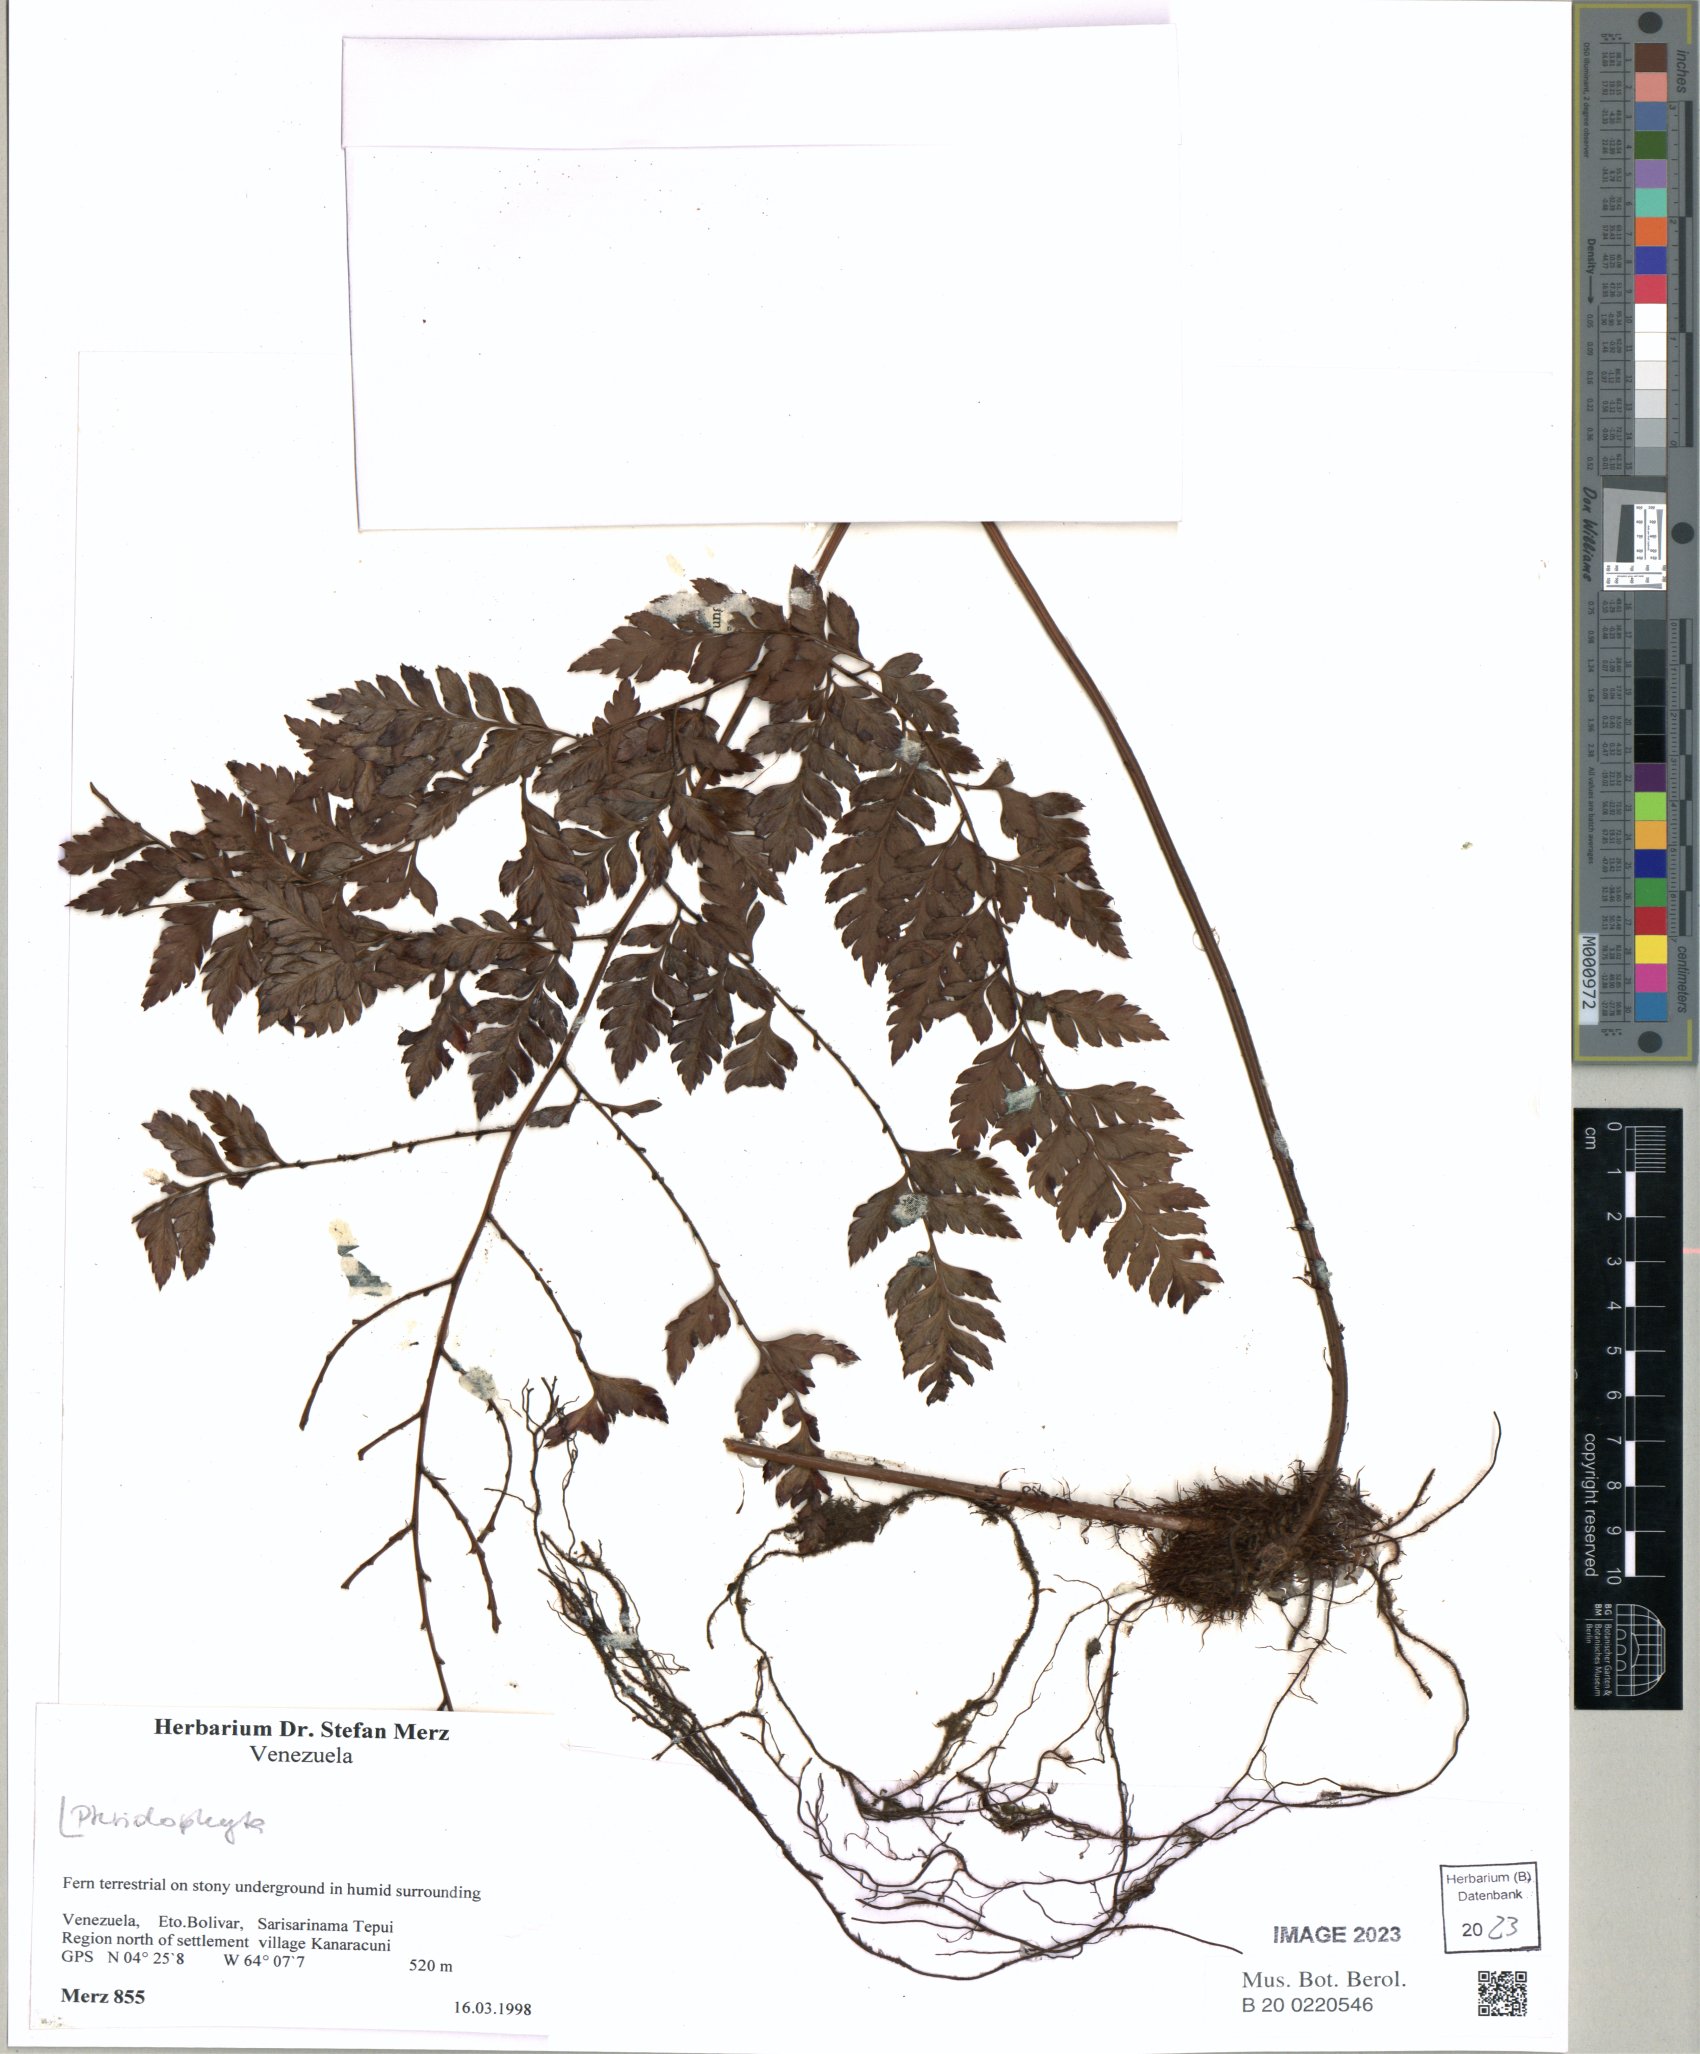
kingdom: Plantae
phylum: Tracheophyta
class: Polypodiopsida
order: Polypodiales
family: Dryopteridaceae
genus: Arachniodes
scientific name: Arachniodes
